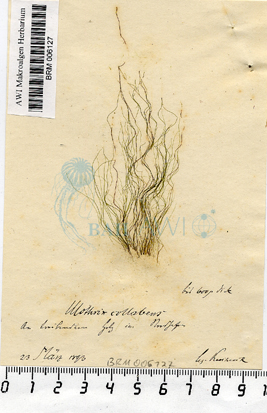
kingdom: Plantae
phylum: Chlorophyta
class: Ulvophyceae
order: Ulotrichales
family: Ulotrichaceae
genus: Ulothrix
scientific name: Ulothrix
